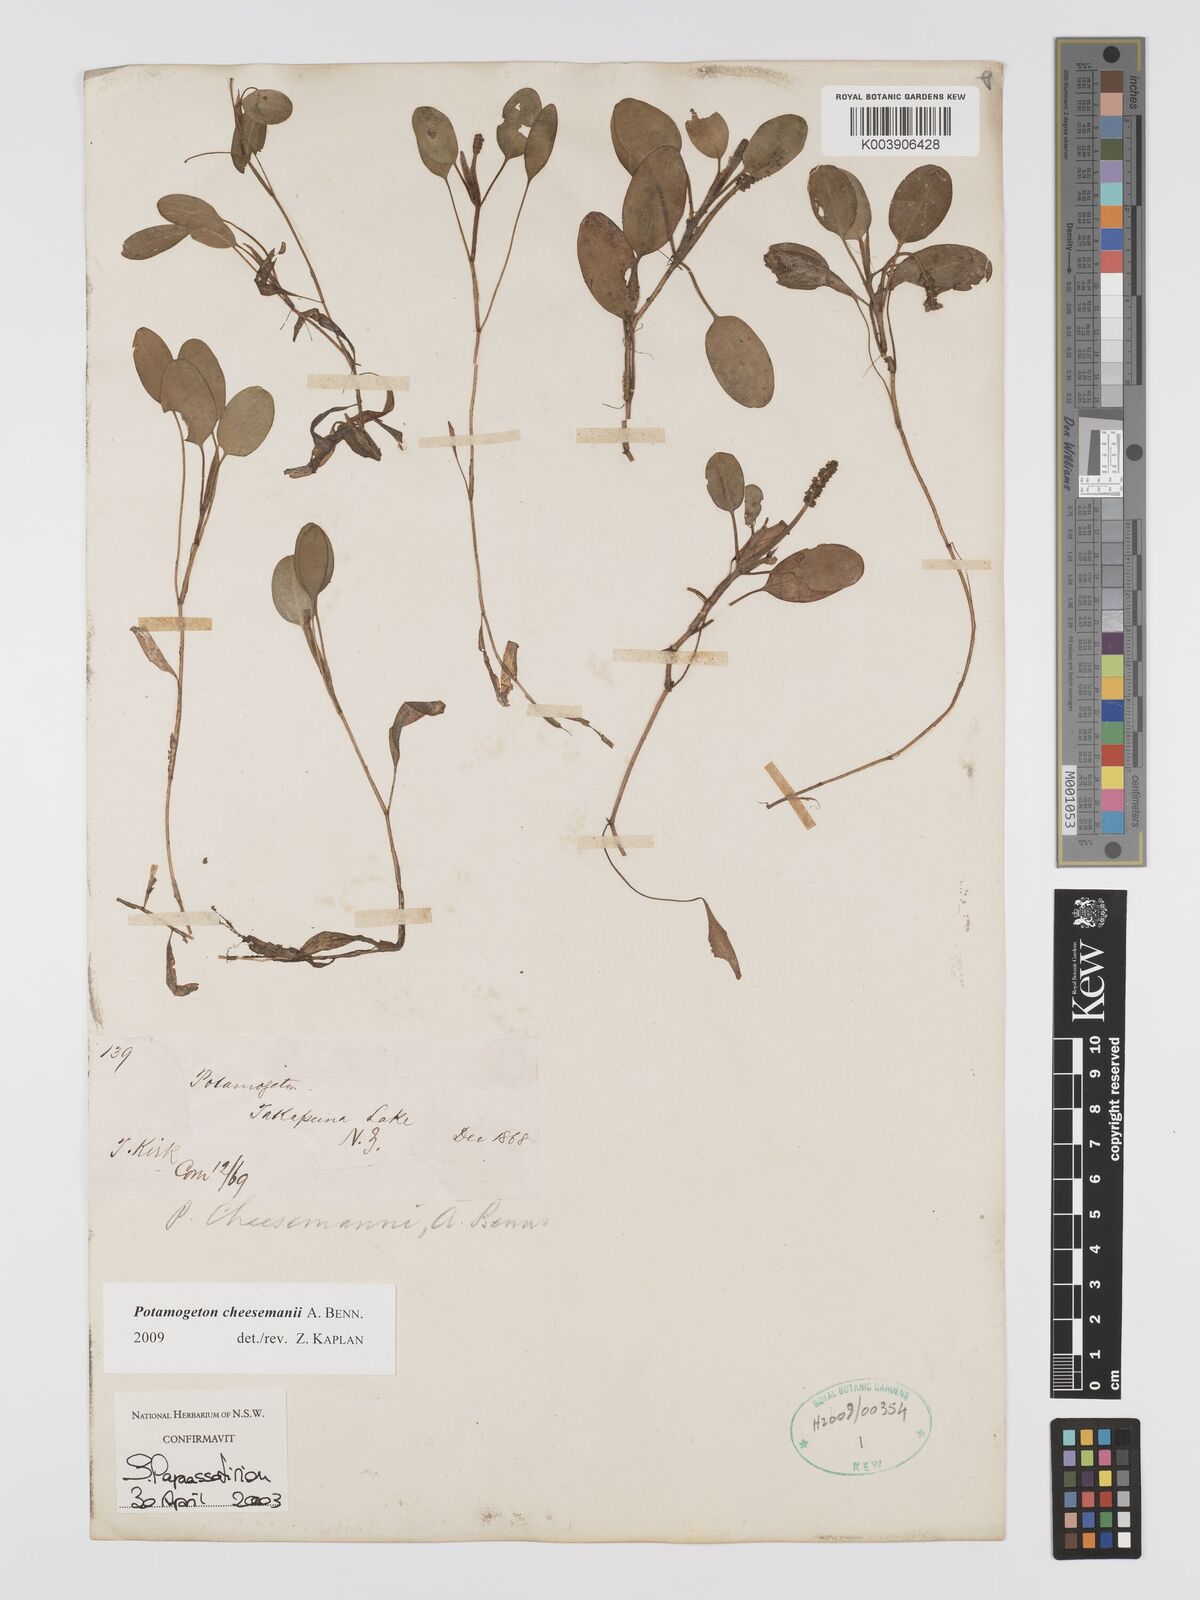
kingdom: Plantae
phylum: Tracheophyta
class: Liliopsida
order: Alismatales
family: Potamogetonaceae
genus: Potamogeton
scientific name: Potamogeton cheesemanii
